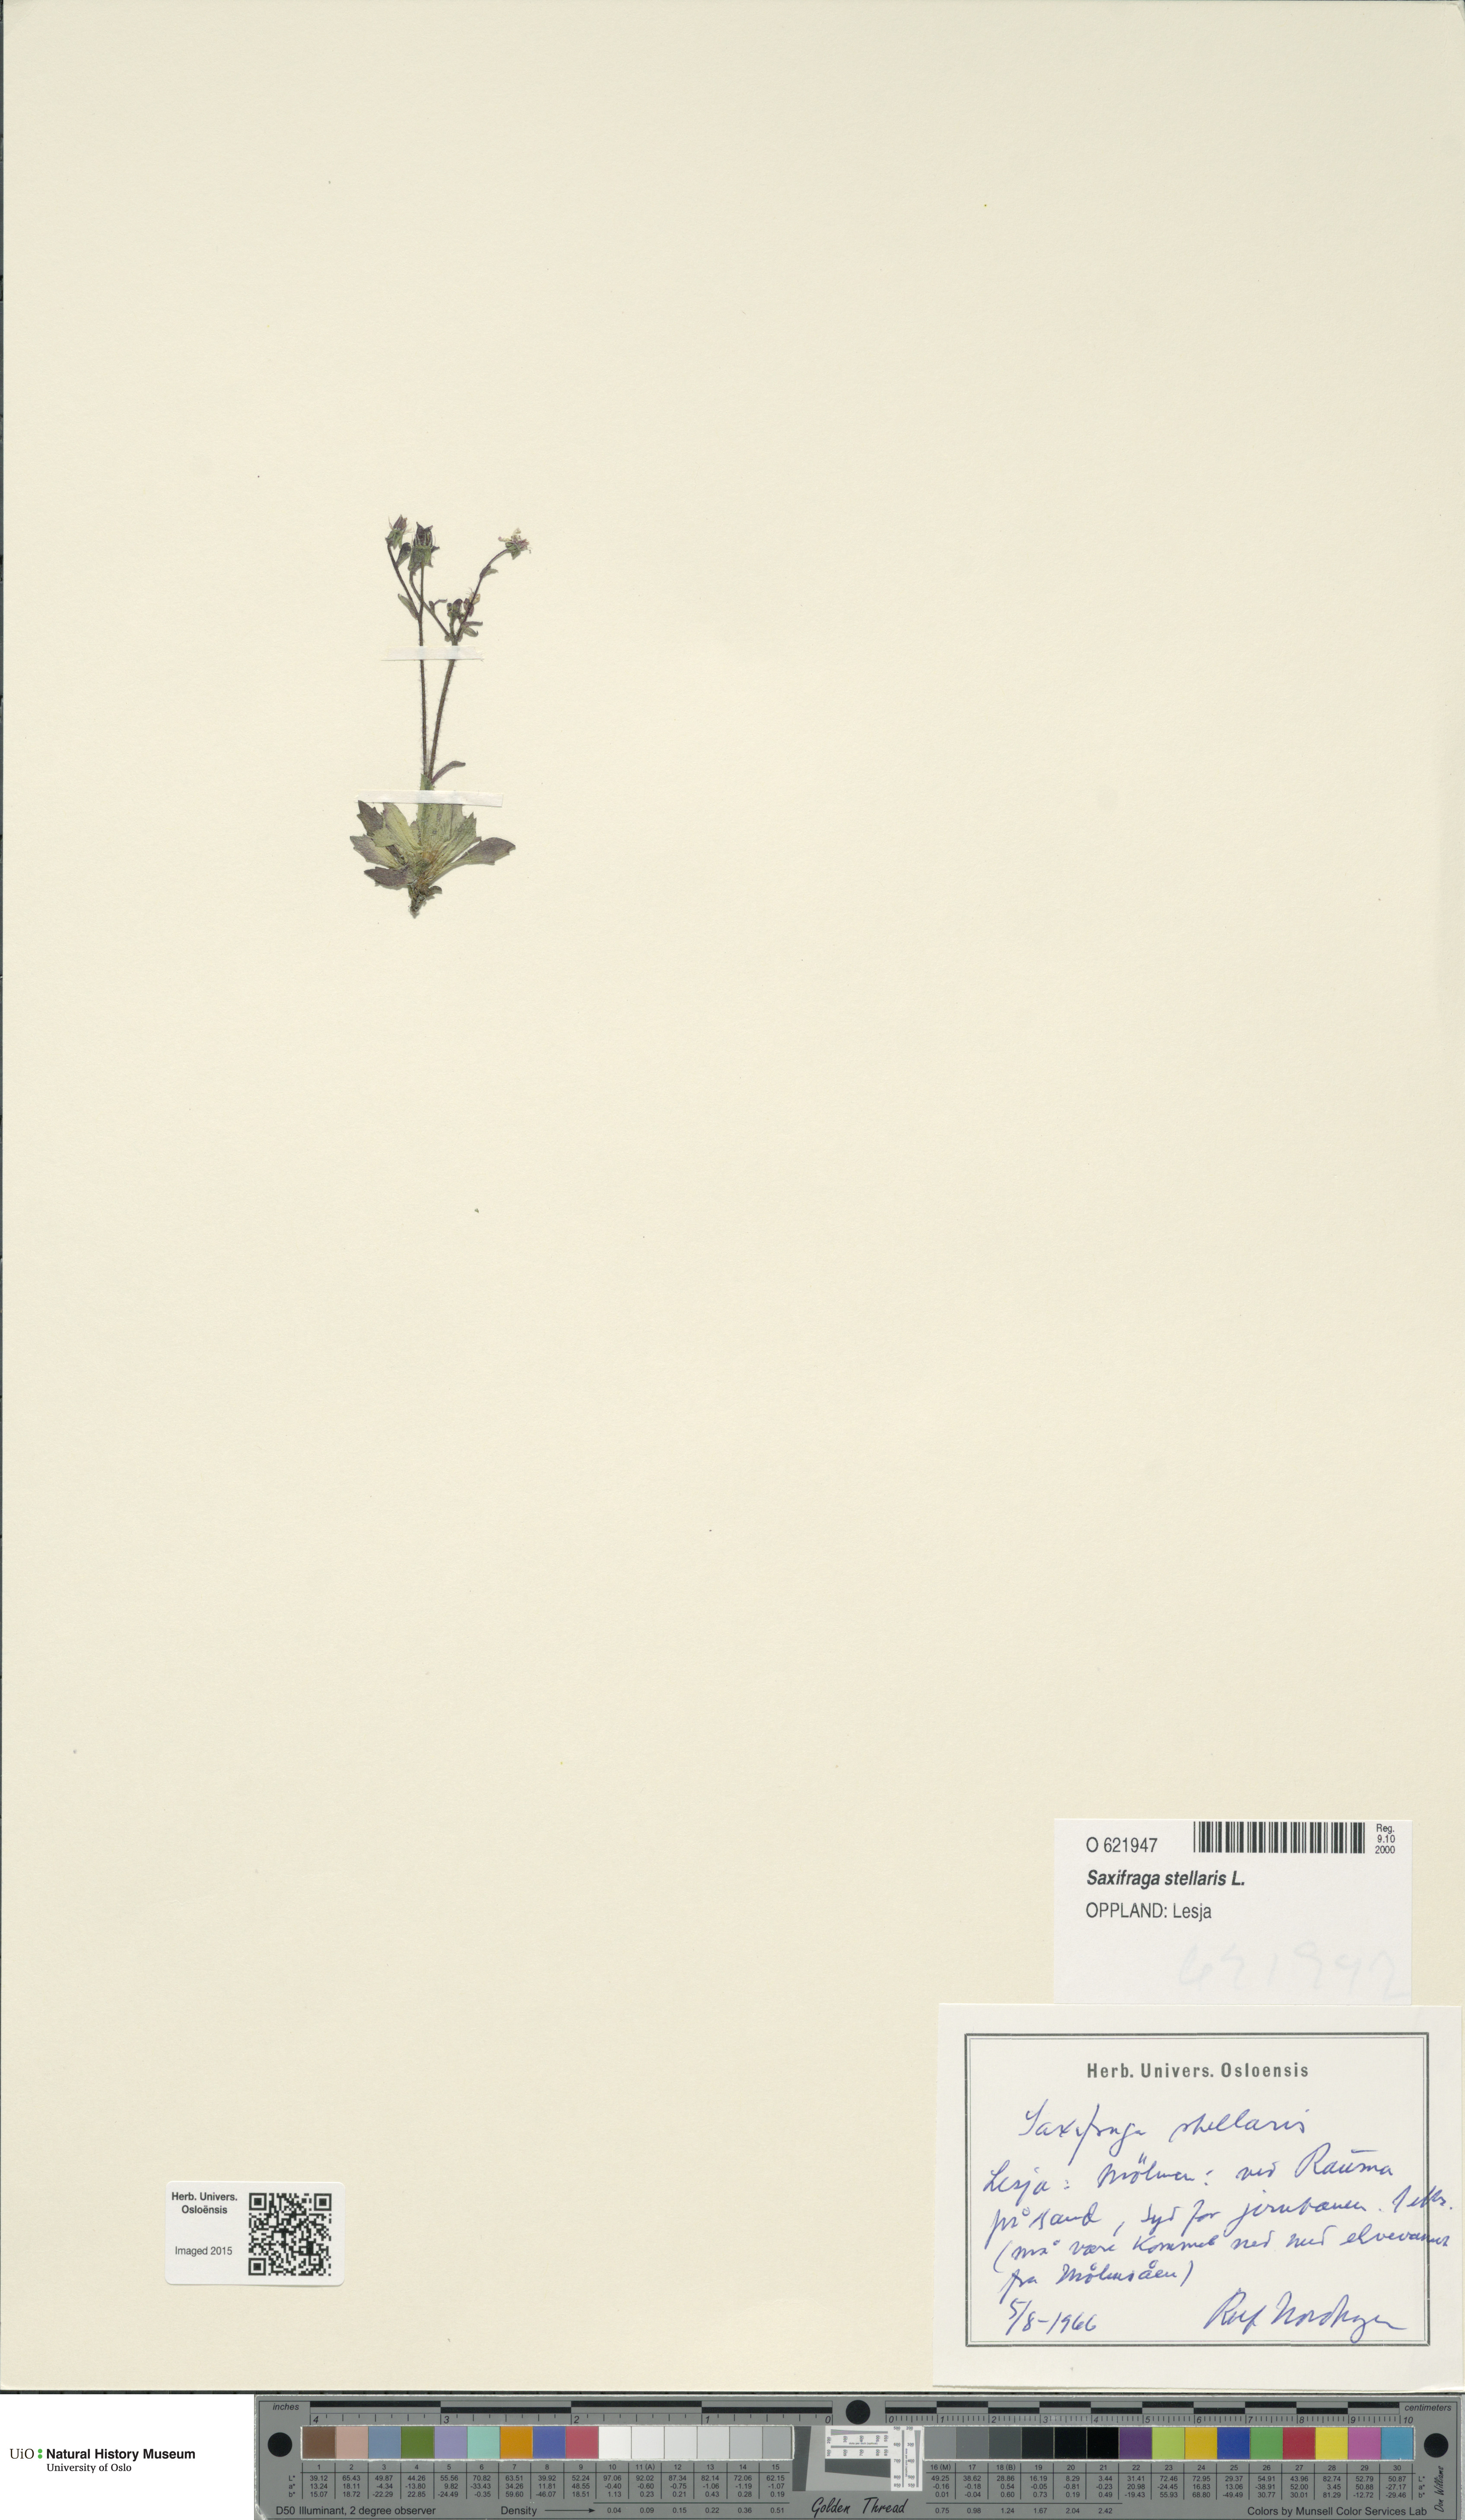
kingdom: Plantae
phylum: Tracheophyta
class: Magnoliopsida
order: Saxifragales
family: Saxifragaceae
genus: Micranthes
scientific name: Micranthes stellaris
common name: Starry saxifrage
